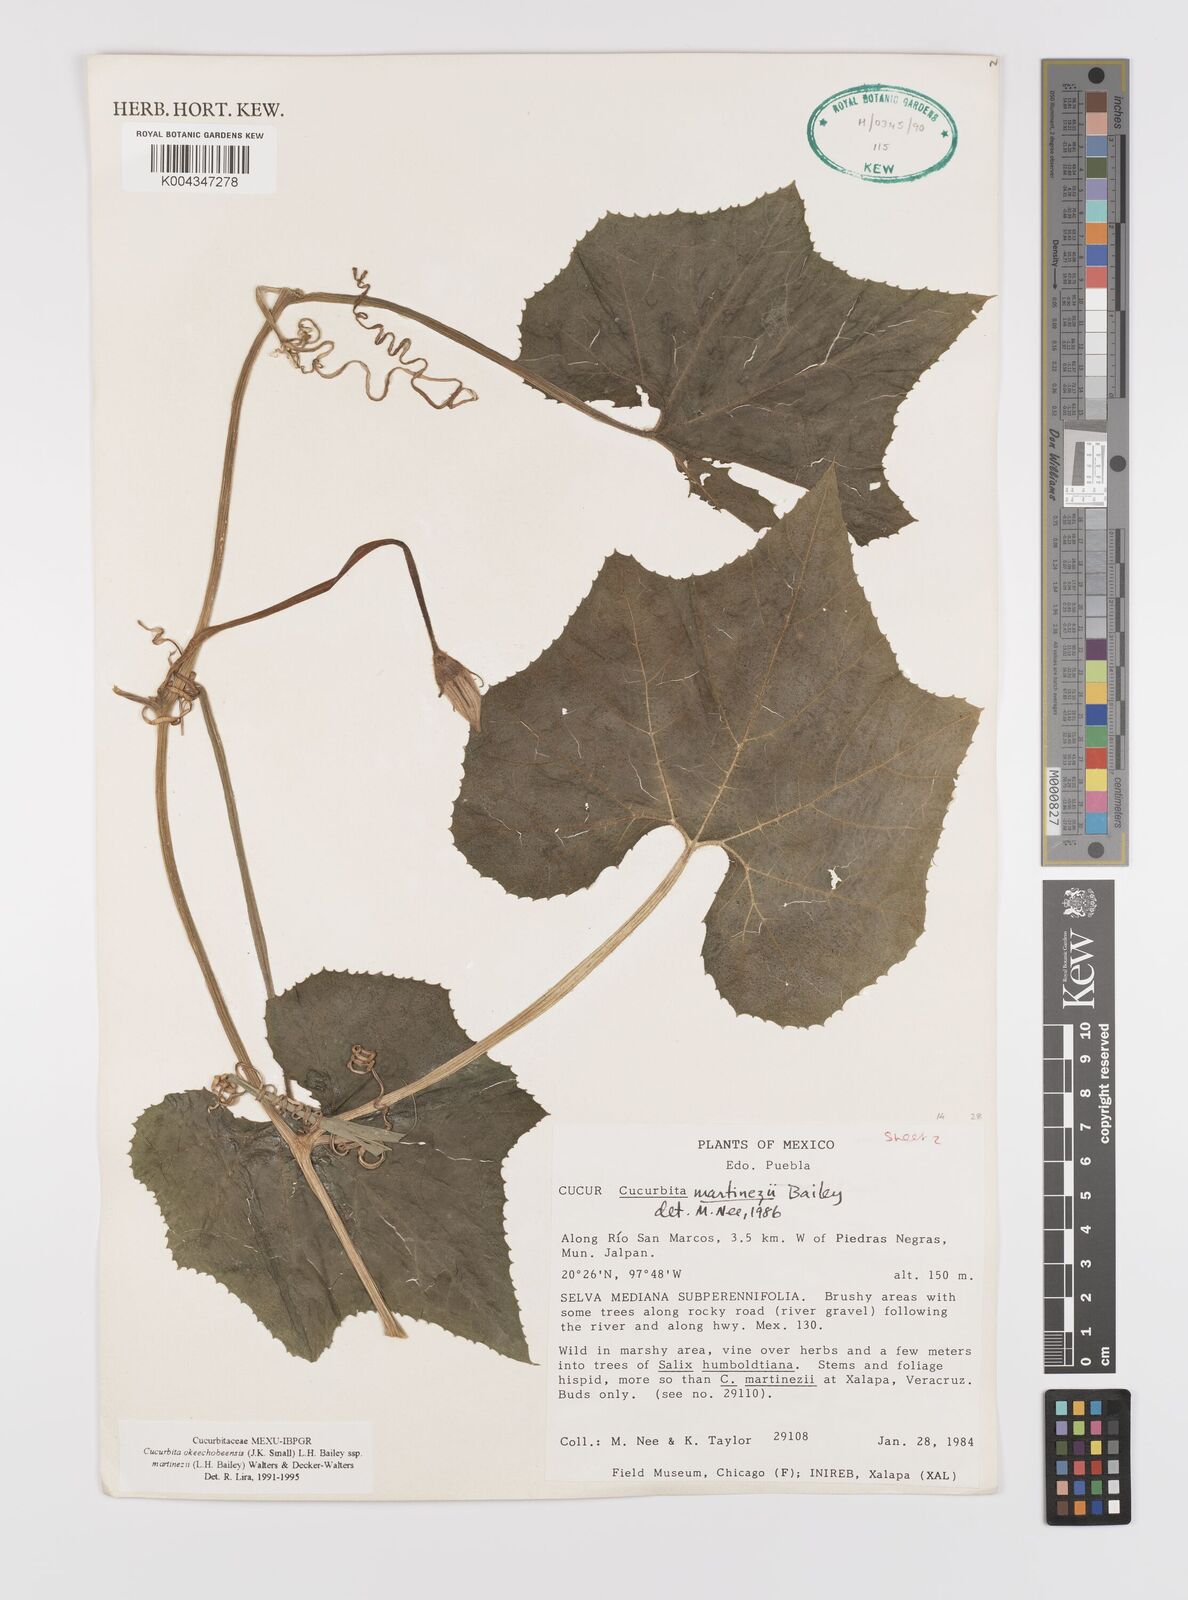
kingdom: Plantae
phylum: Tracheophyta
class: Magnoliopsida
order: Cucurbitales
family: Cucurbitaceae
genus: Cucurbita
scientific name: Cucurbita okeechobeensis
